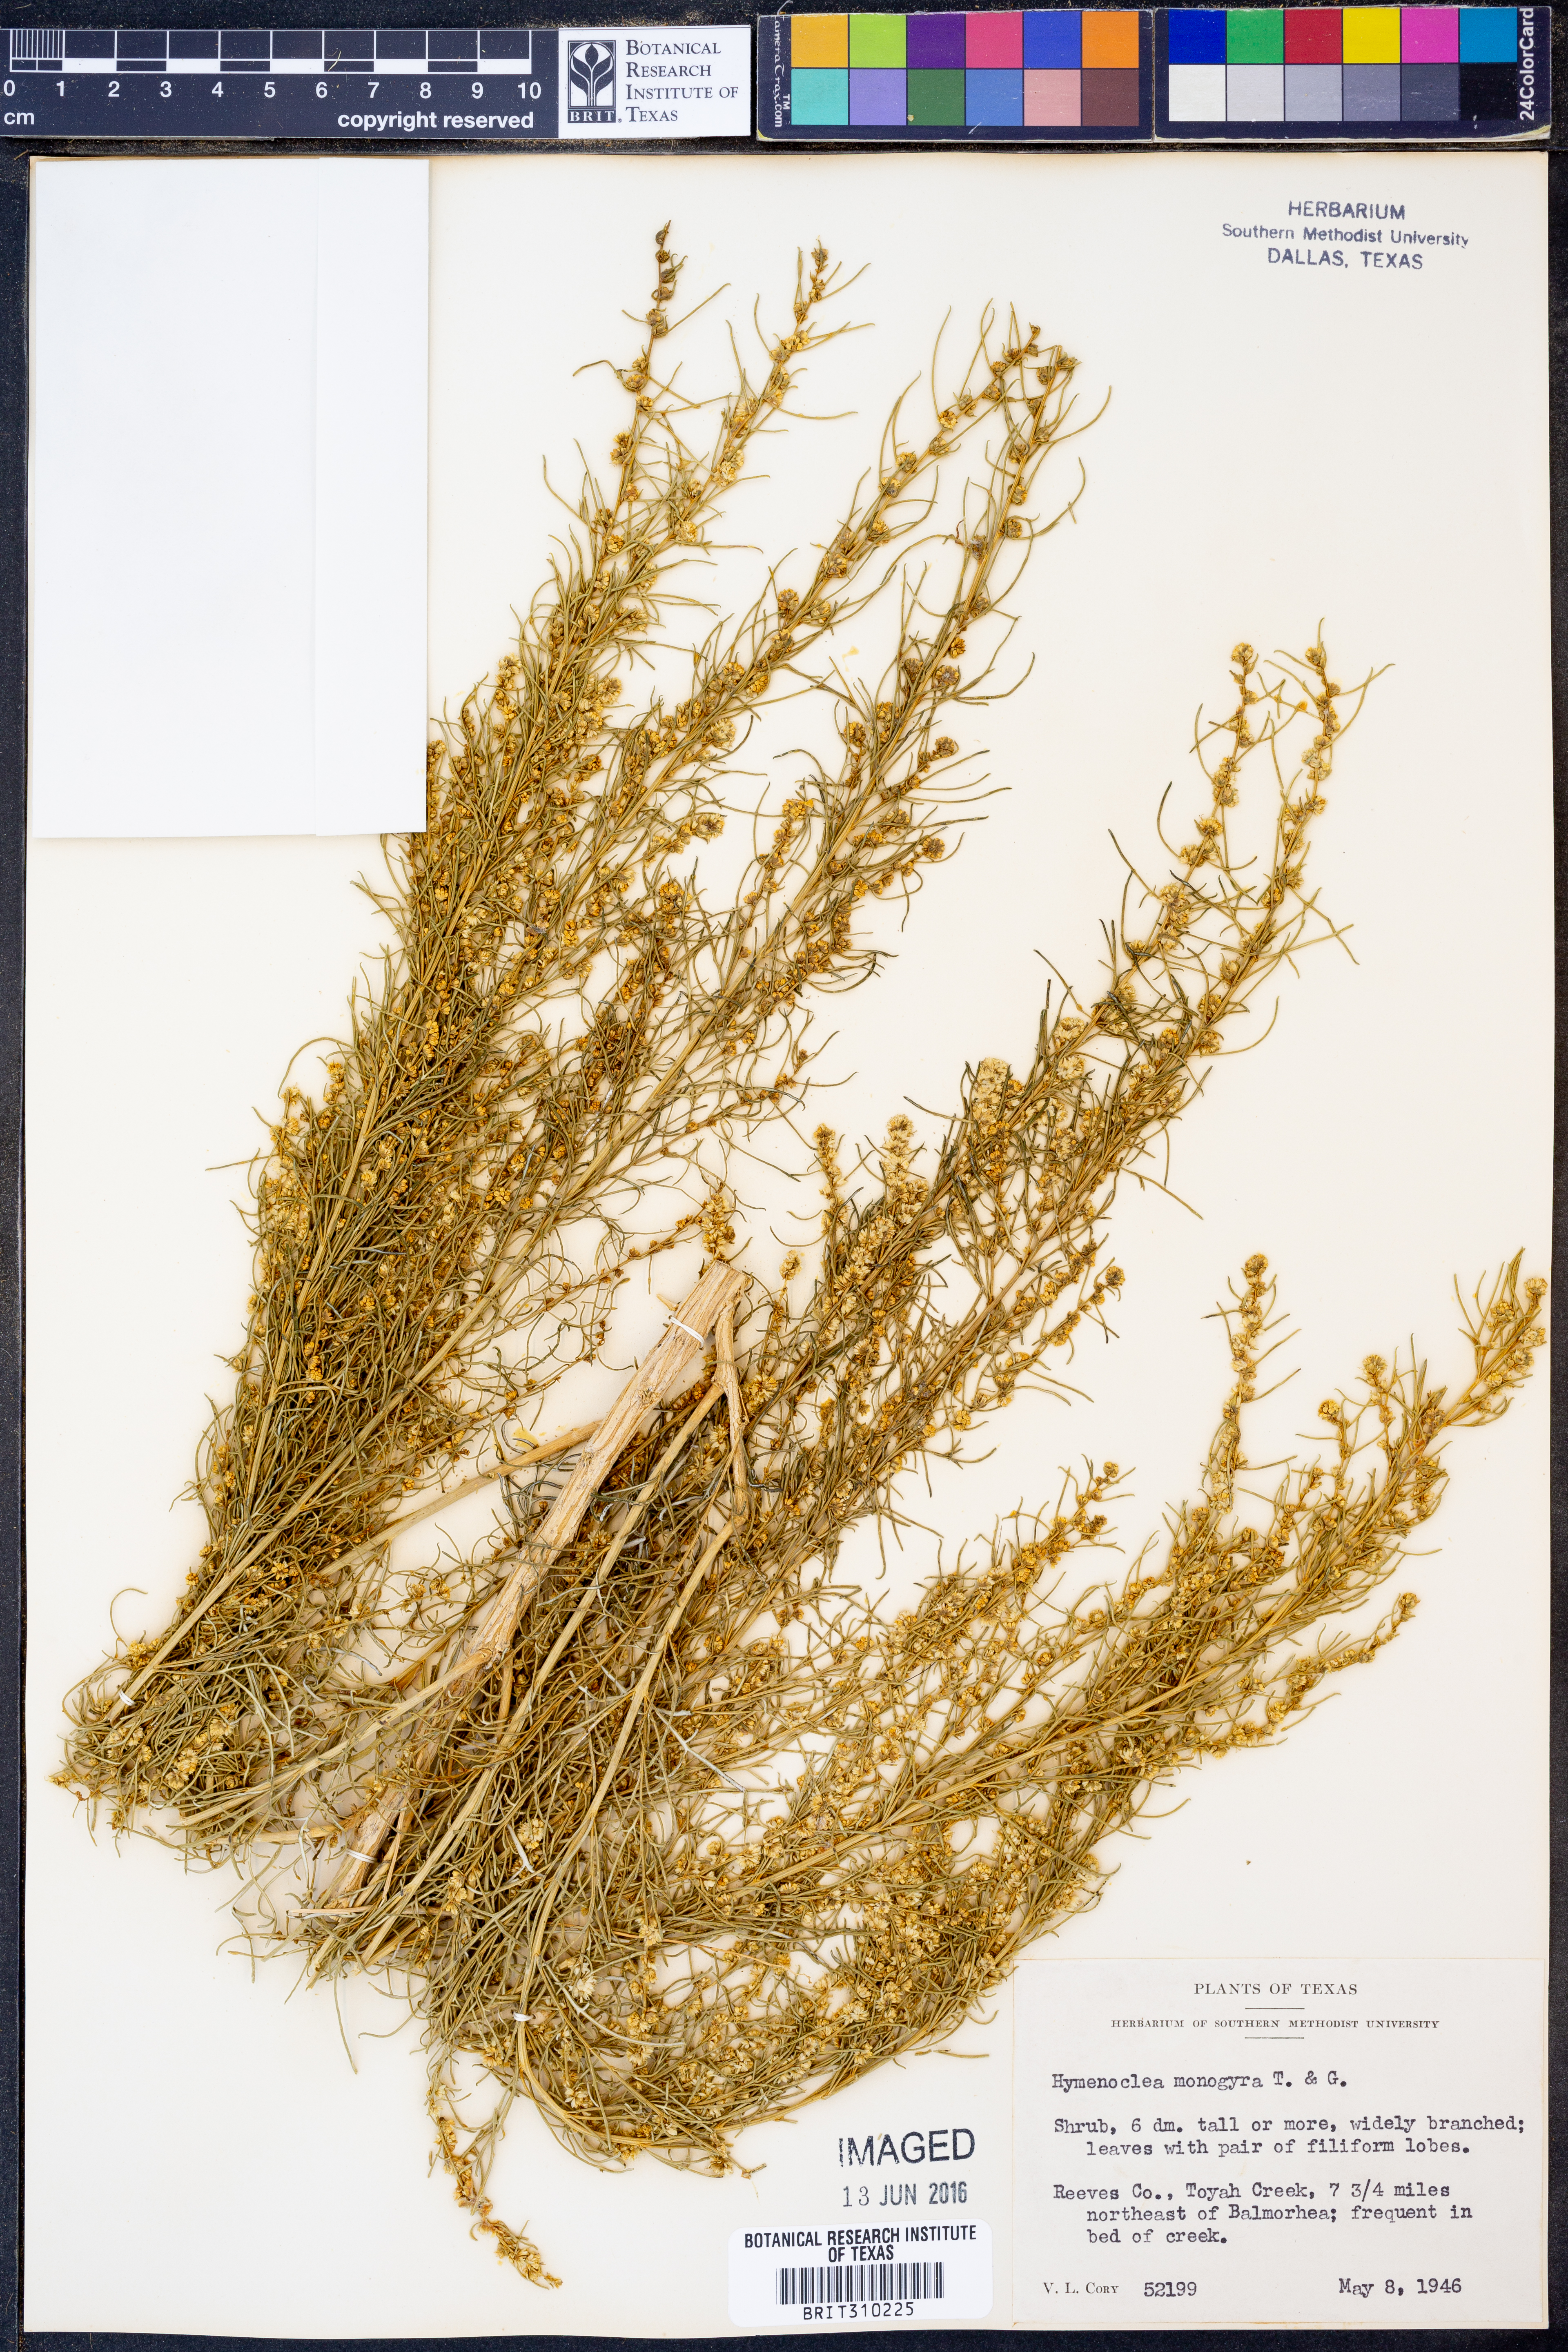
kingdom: Plantae
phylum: Tracheophyta
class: Magnoliopsida
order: Asterales
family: Asteraceae
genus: Ambrosia
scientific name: Ambrosia monogyra
